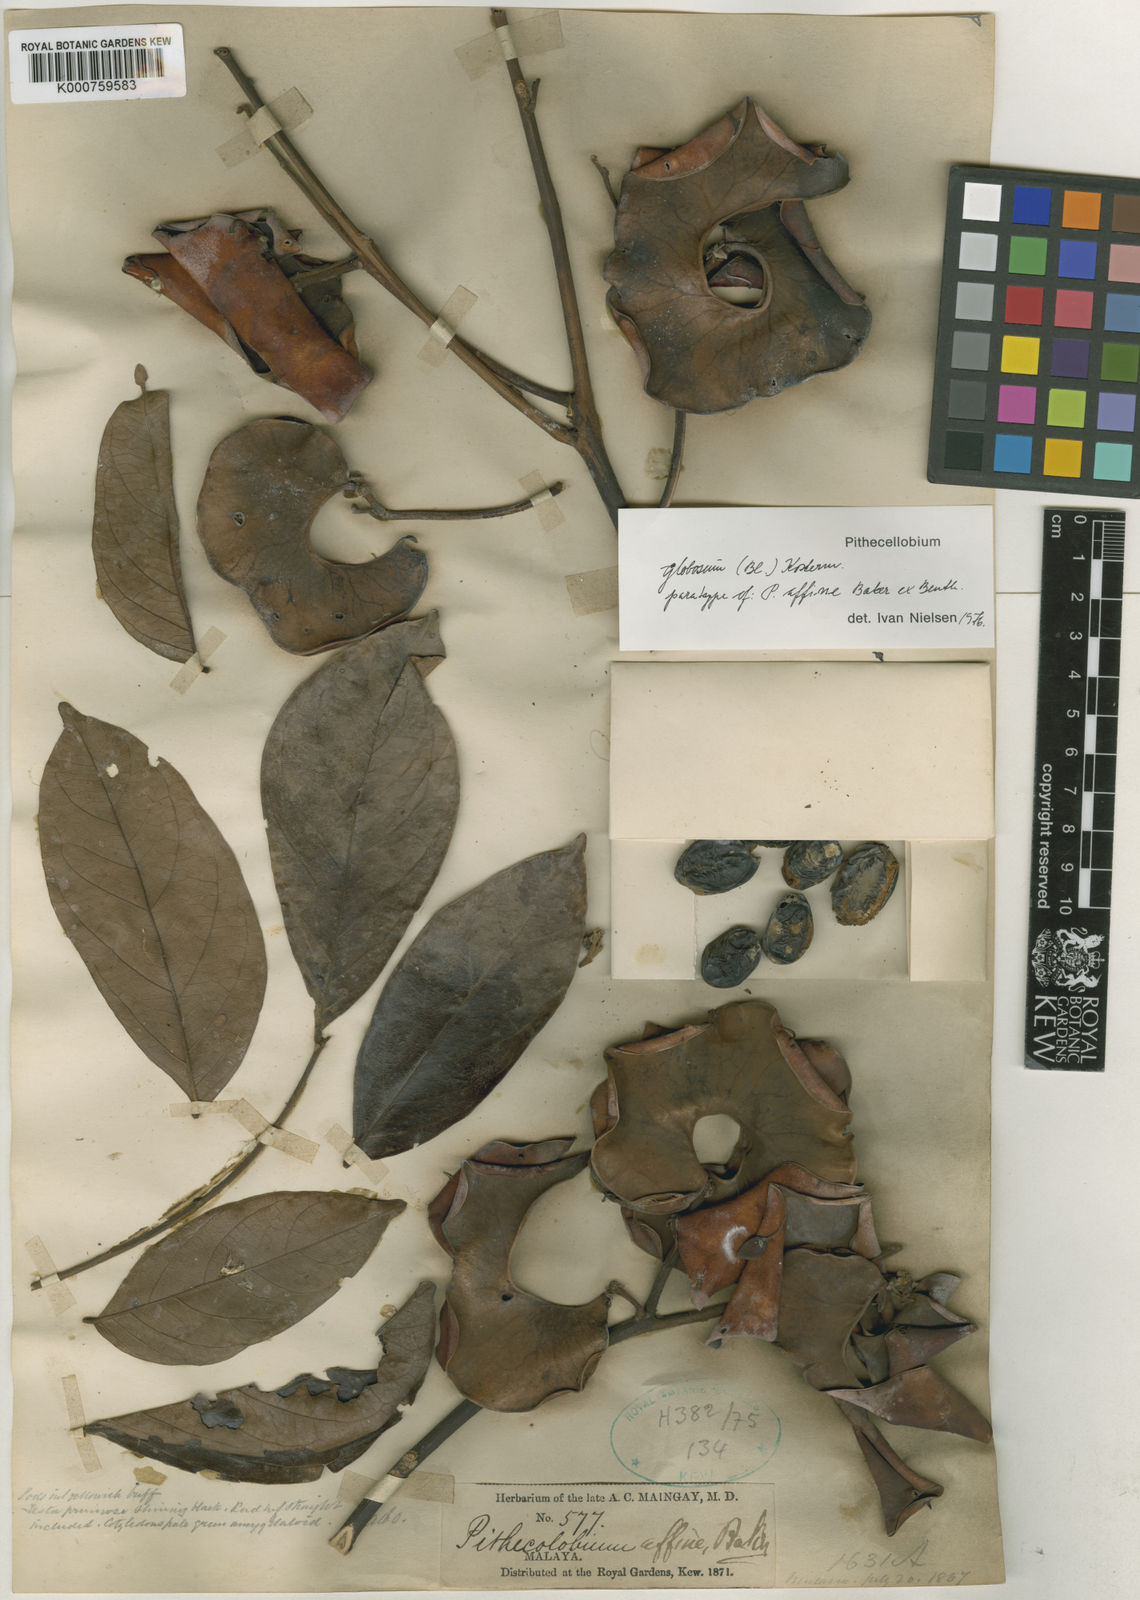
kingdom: Plantae
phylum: Tracheophyta
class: Magnoliopsida
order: Fabales
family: Fabaceae
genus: Archidendron
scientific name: Archidendron globosum
